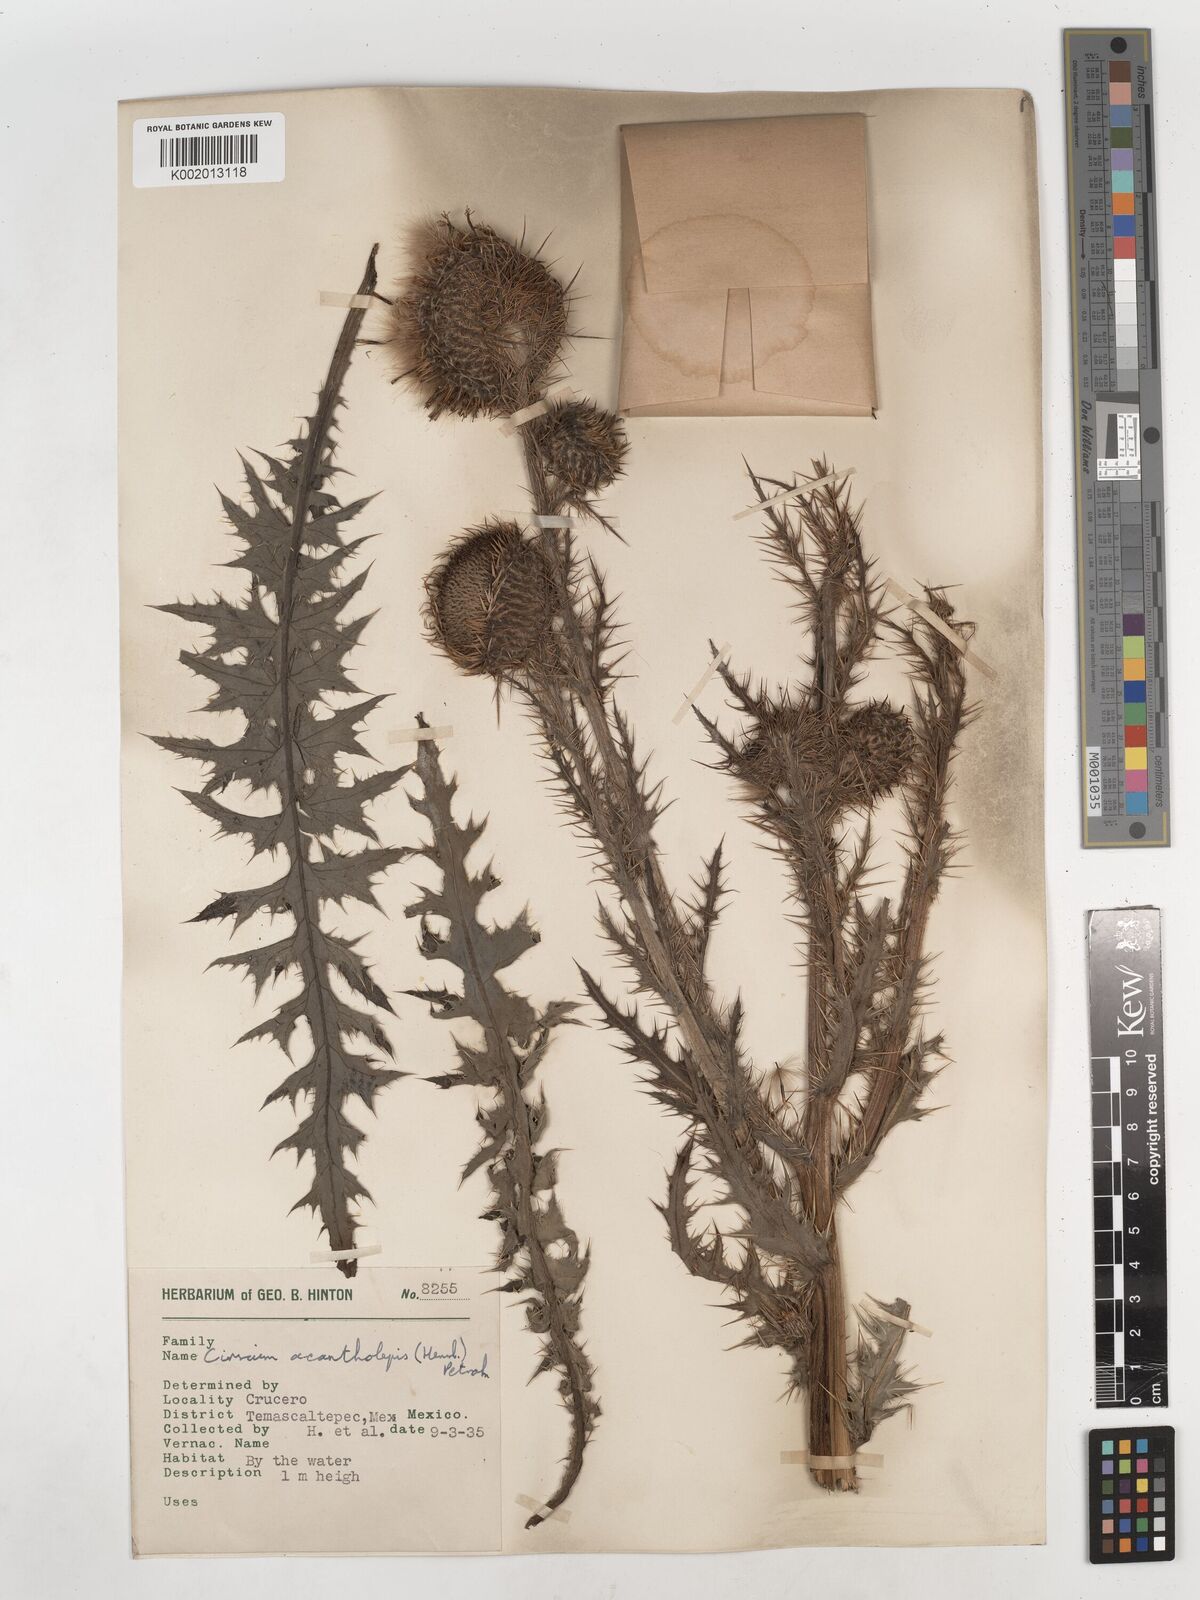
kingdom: Plantae
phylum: Tracheophyta
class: Magnoliopsida
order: Asterales
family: Asteraceae
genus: Cirsium
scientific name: Cirsium jorullense
